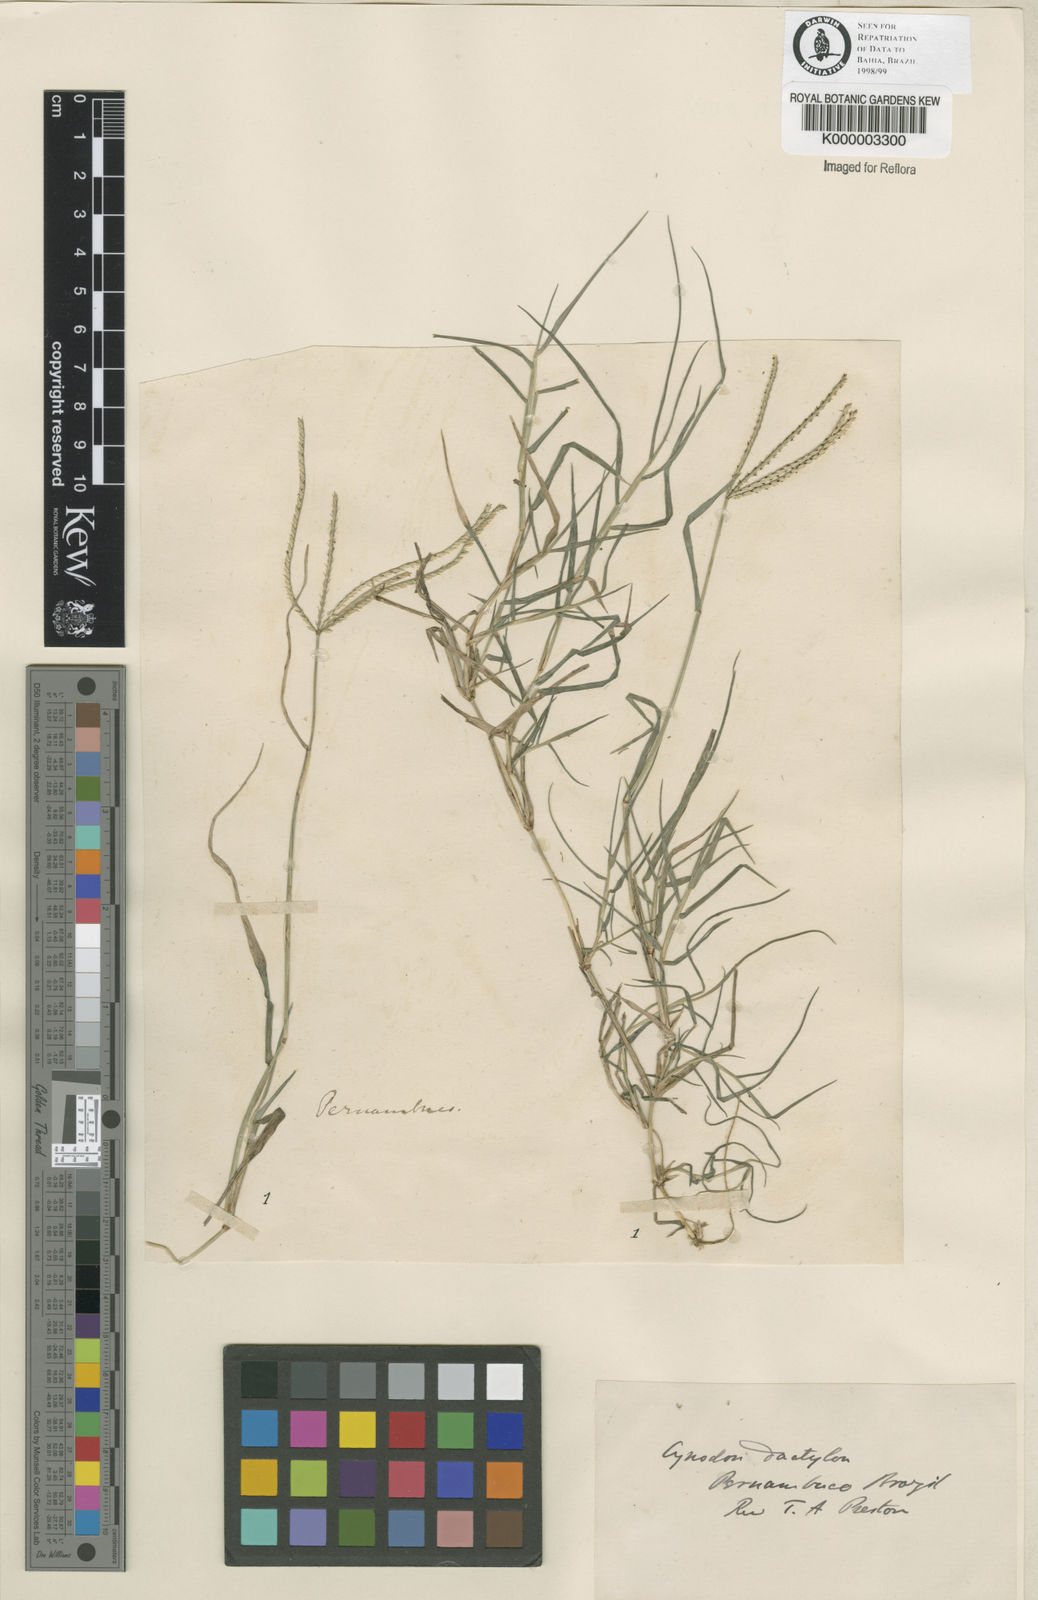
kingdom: Plantae
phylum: Tracheophyta
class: Liliopsida
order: Poales
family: Poaceae
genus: Cynodon
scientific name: Cynodon dactylon
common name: Bermuda grass
